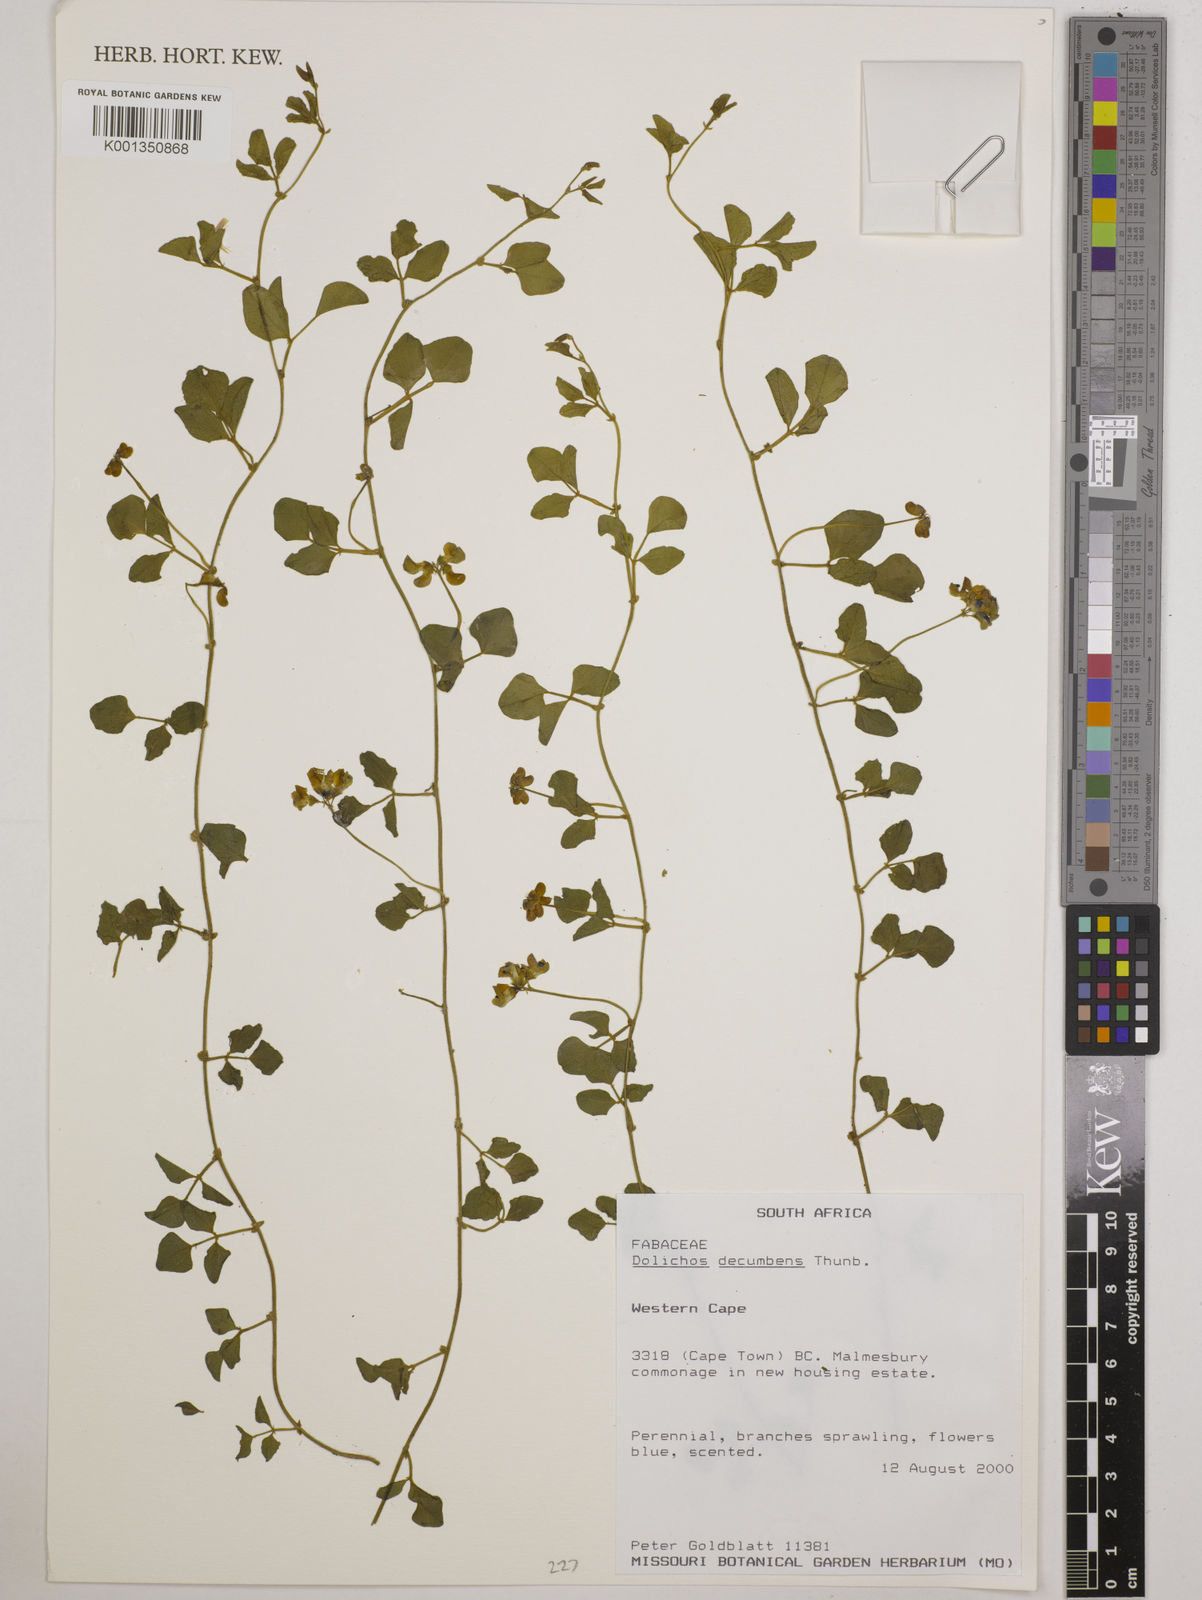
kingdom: Plantae
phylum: Tracheophyta
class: Magnoliopsida
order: Fabales
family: Fabaceae
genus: Dolichos
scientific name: Dolichos decumbens
